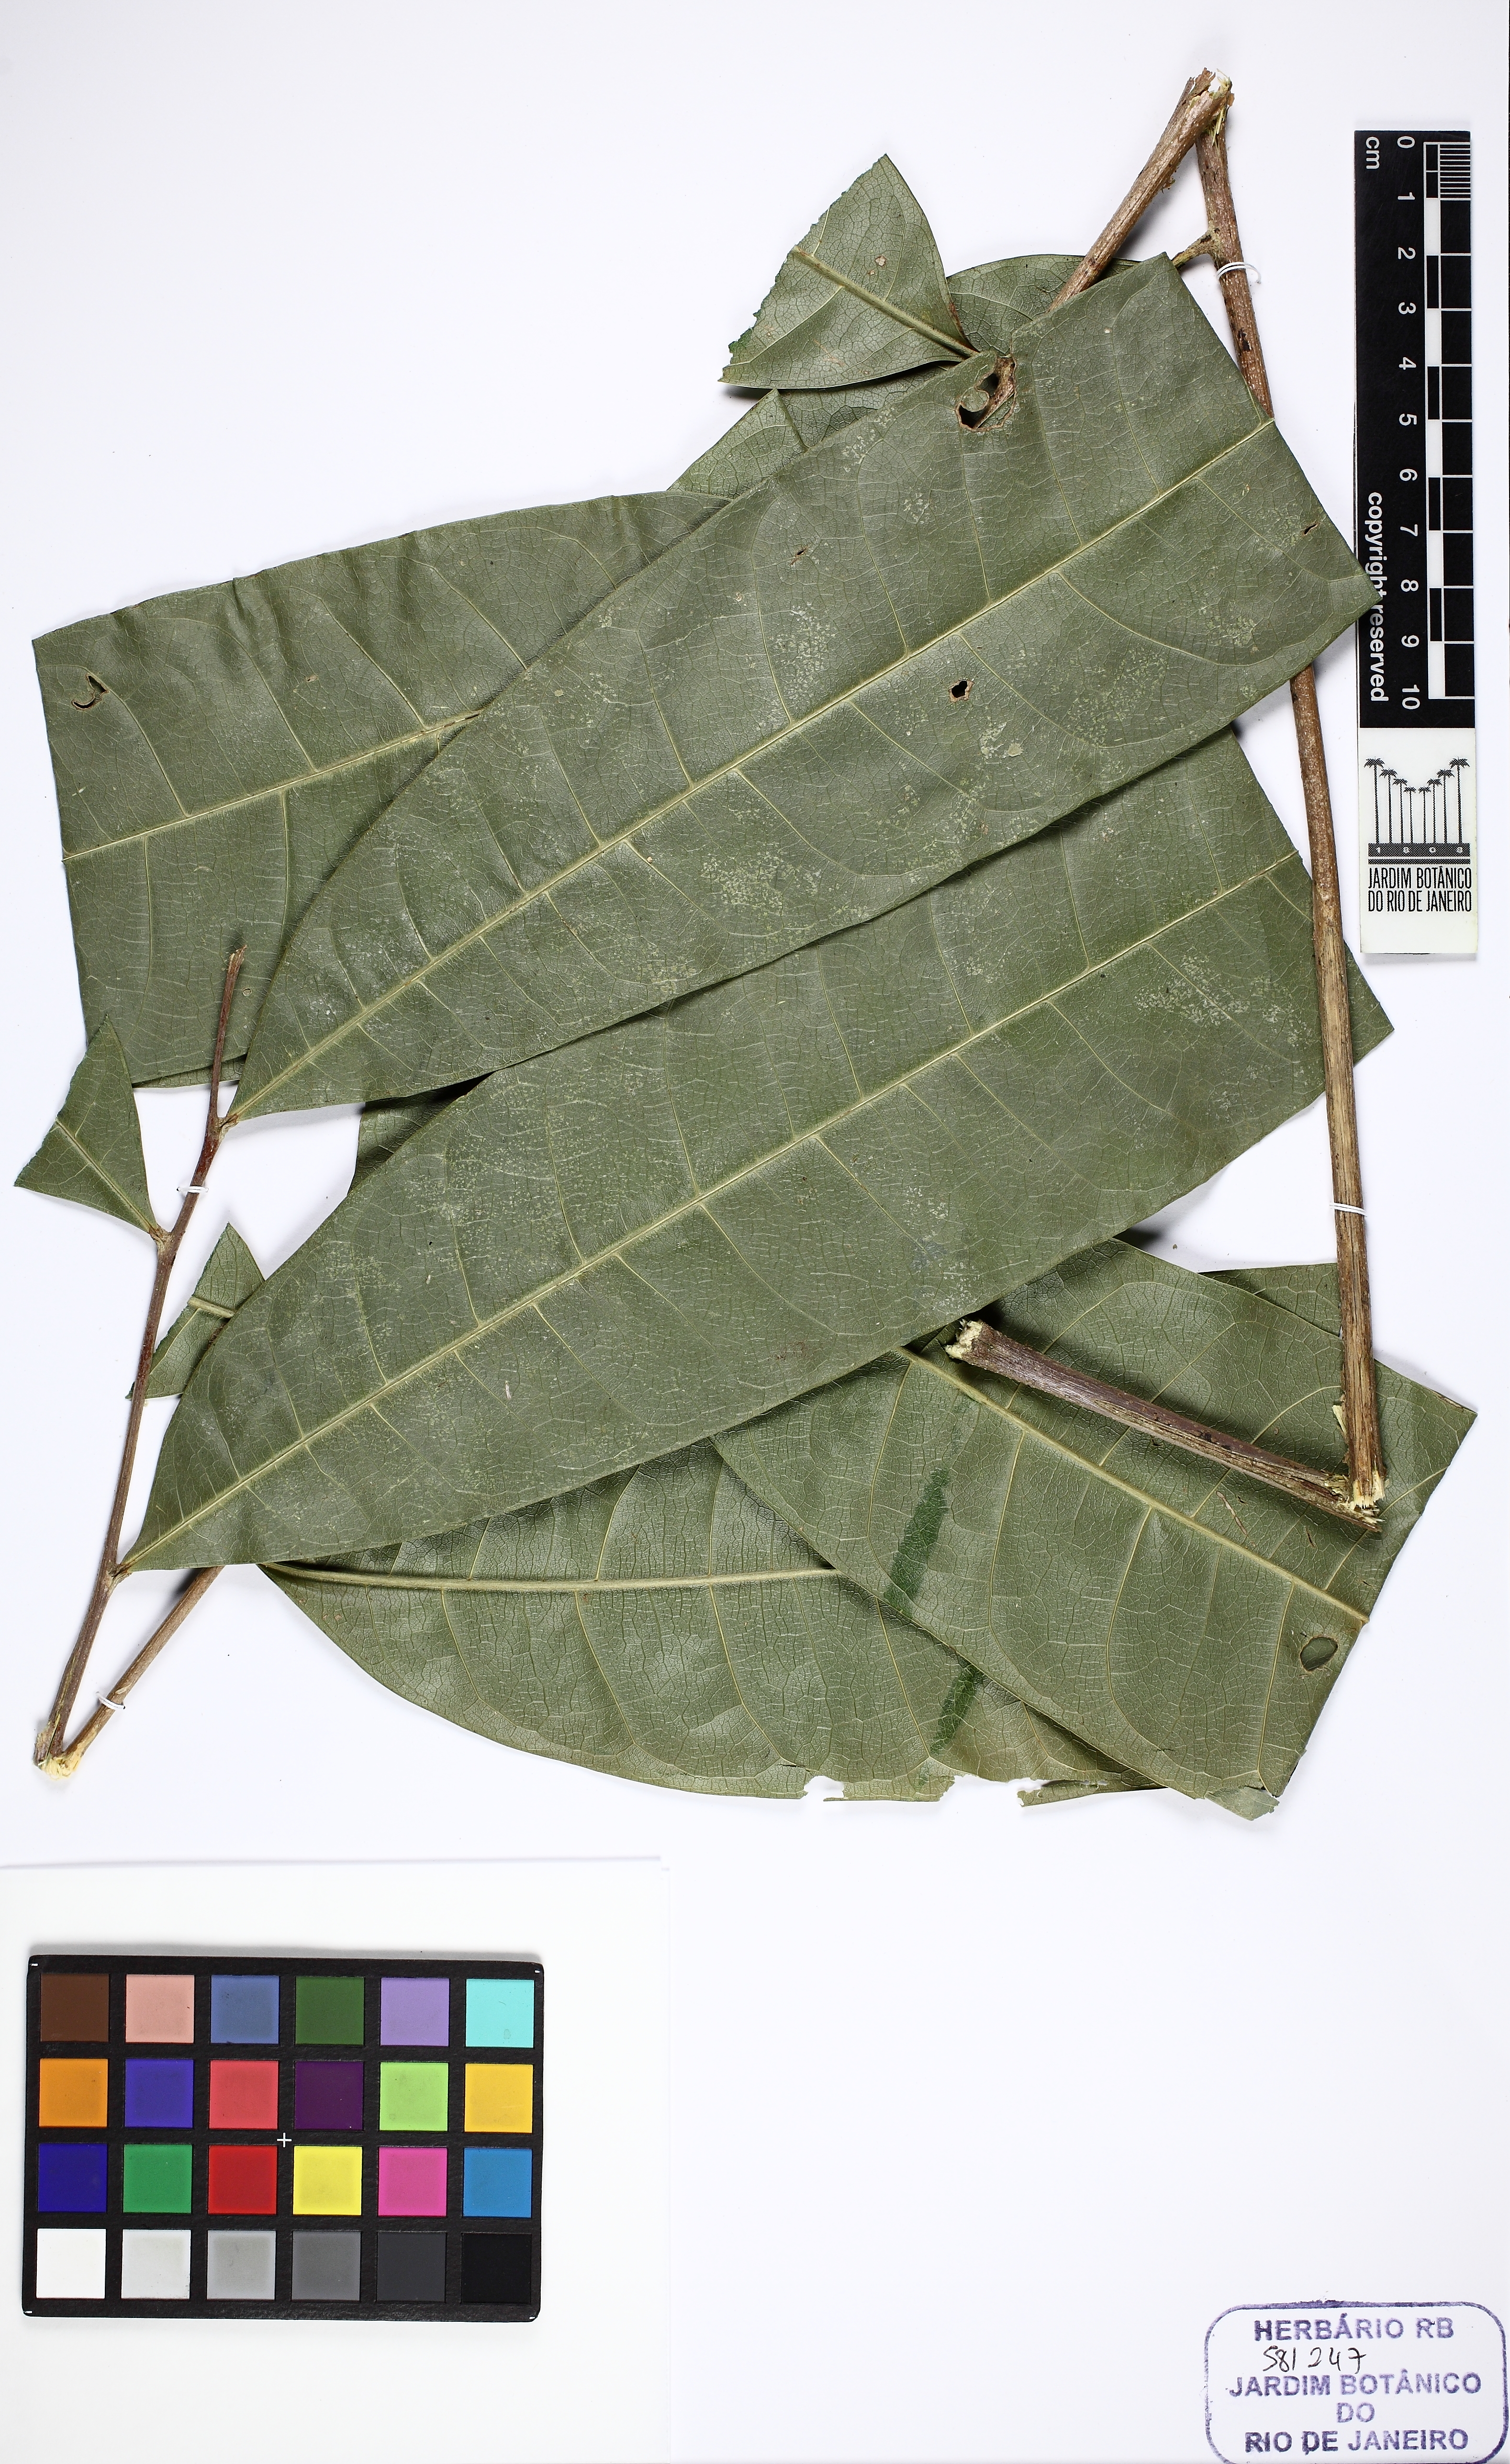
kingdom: Plantae
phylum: Tracheophyta
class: Magnoliopsida
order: Sapindales
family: Sapindaceae
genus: Pseudima
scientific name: Pseudima
